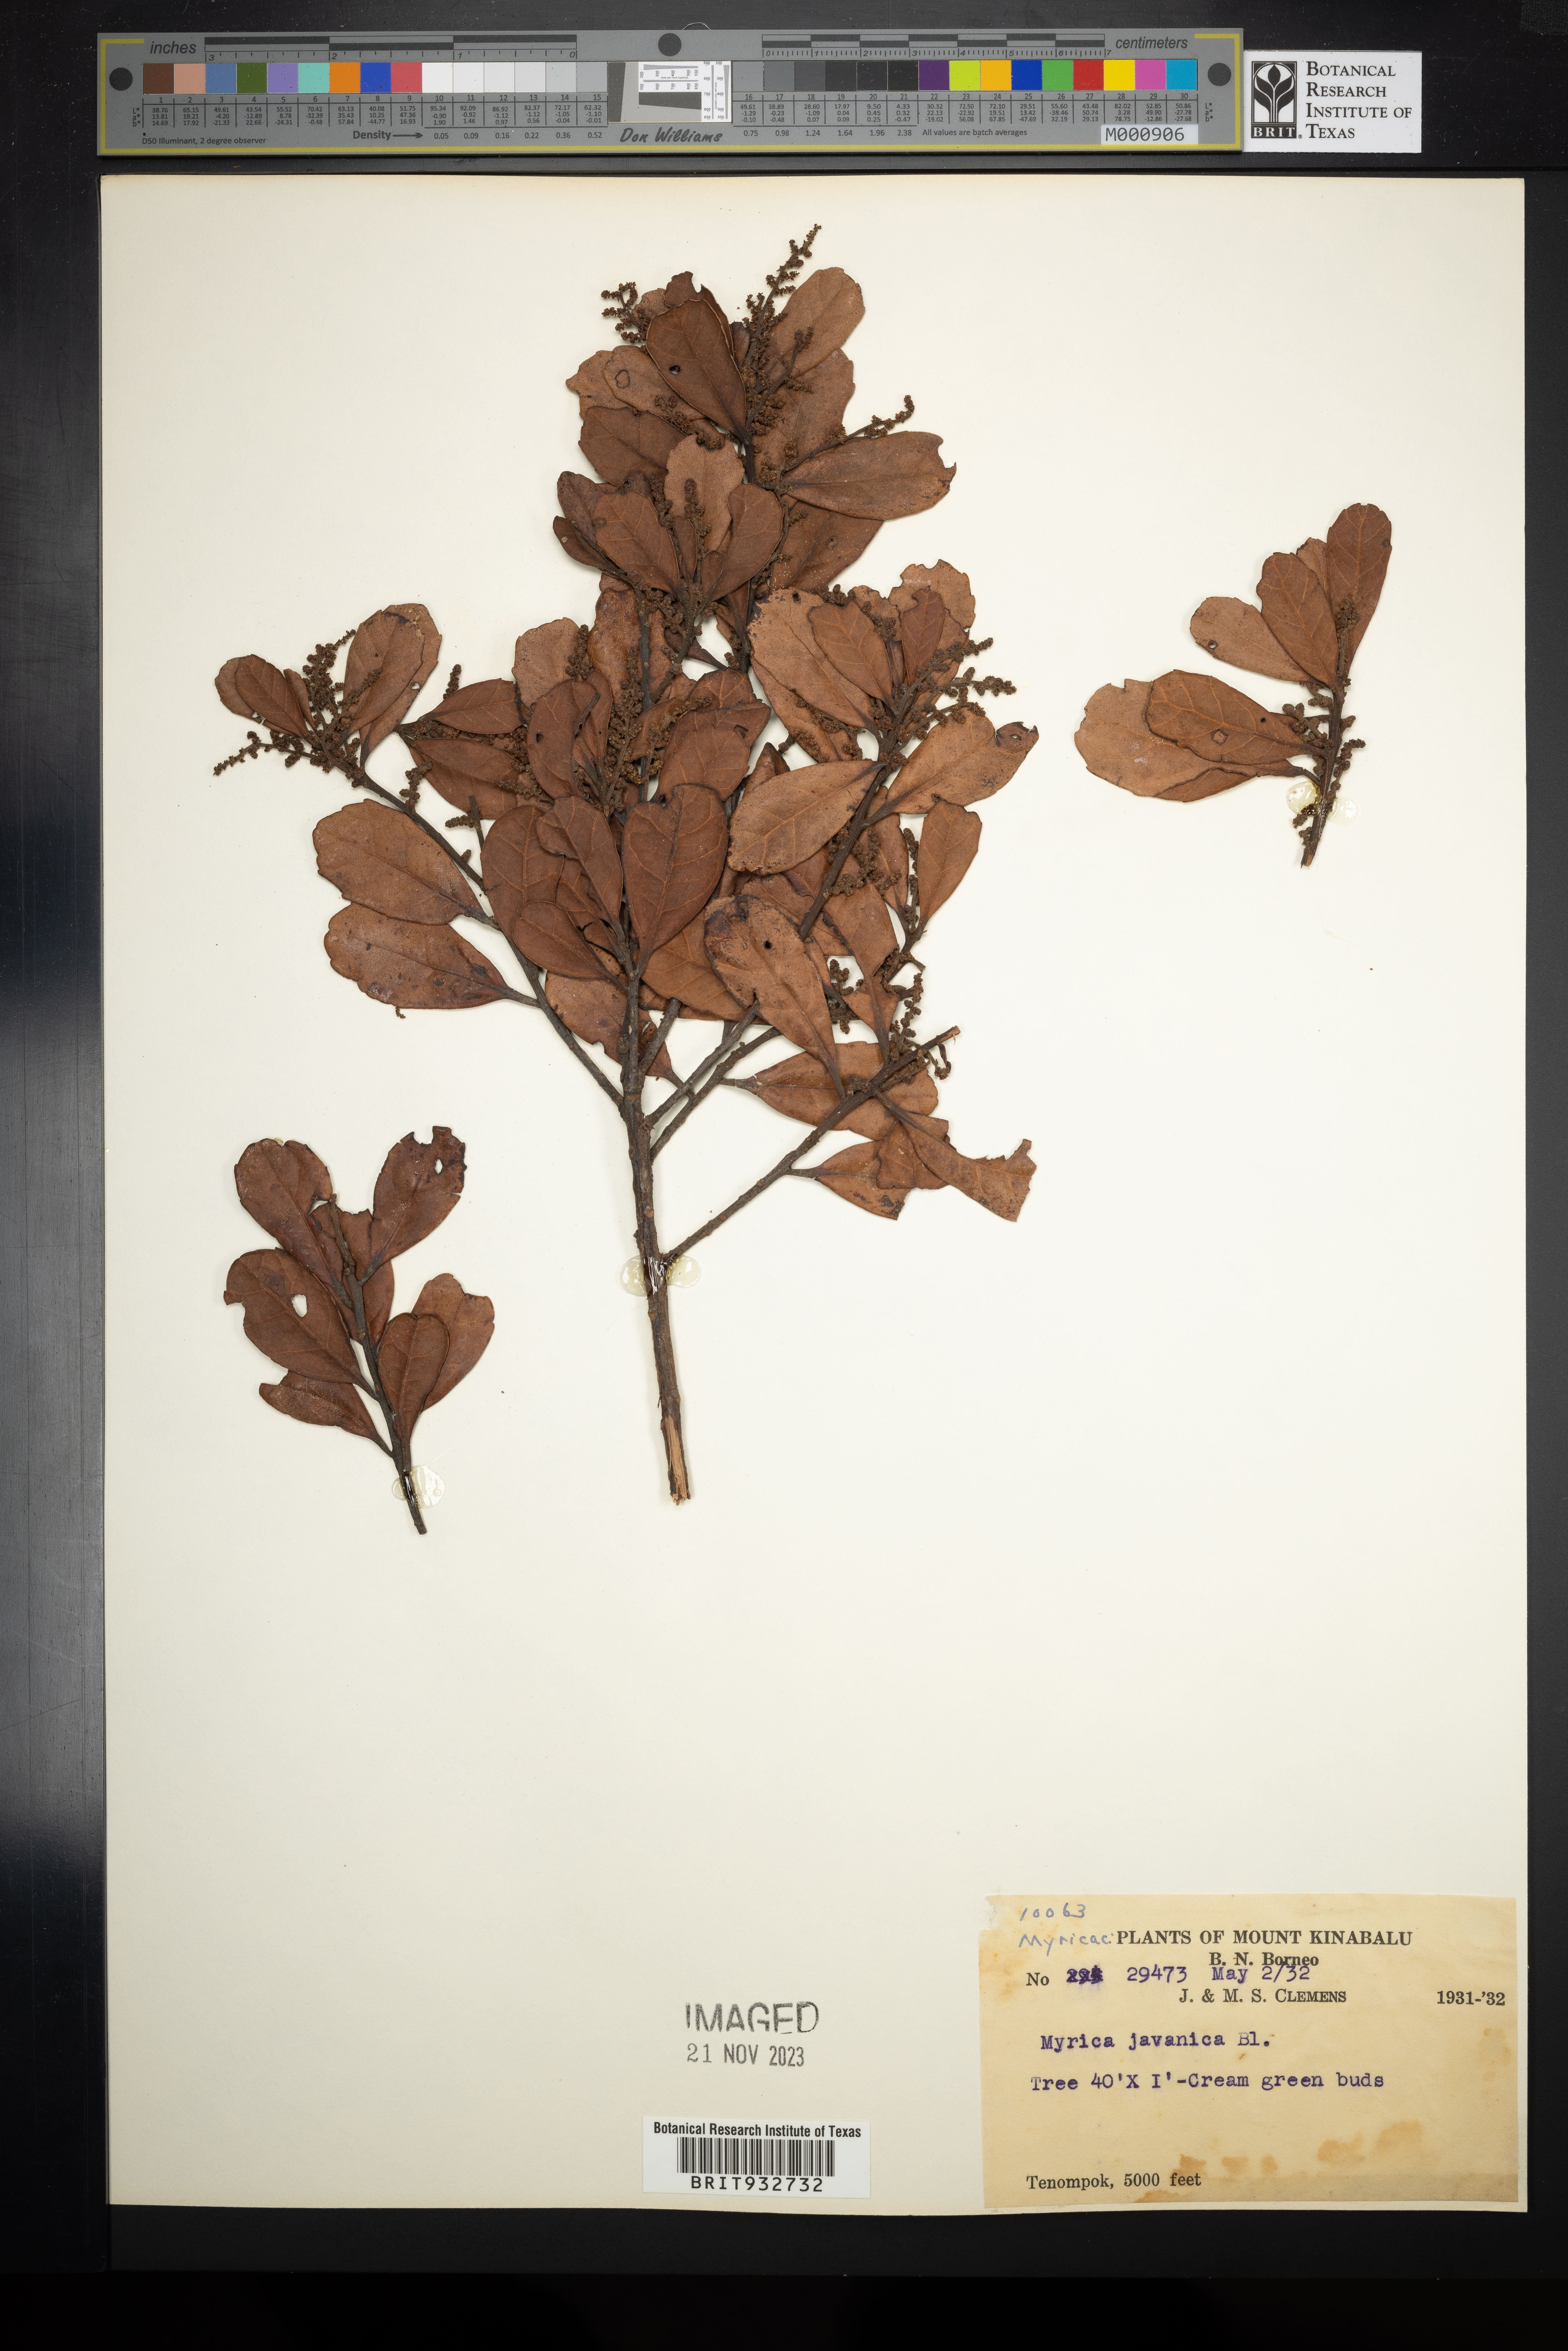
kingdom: Plantae
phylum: Tracheophyta
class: Magnoliopsida
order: Cucurbitales
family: Cucurbitaceae
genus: Momordica
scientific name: Momordica
